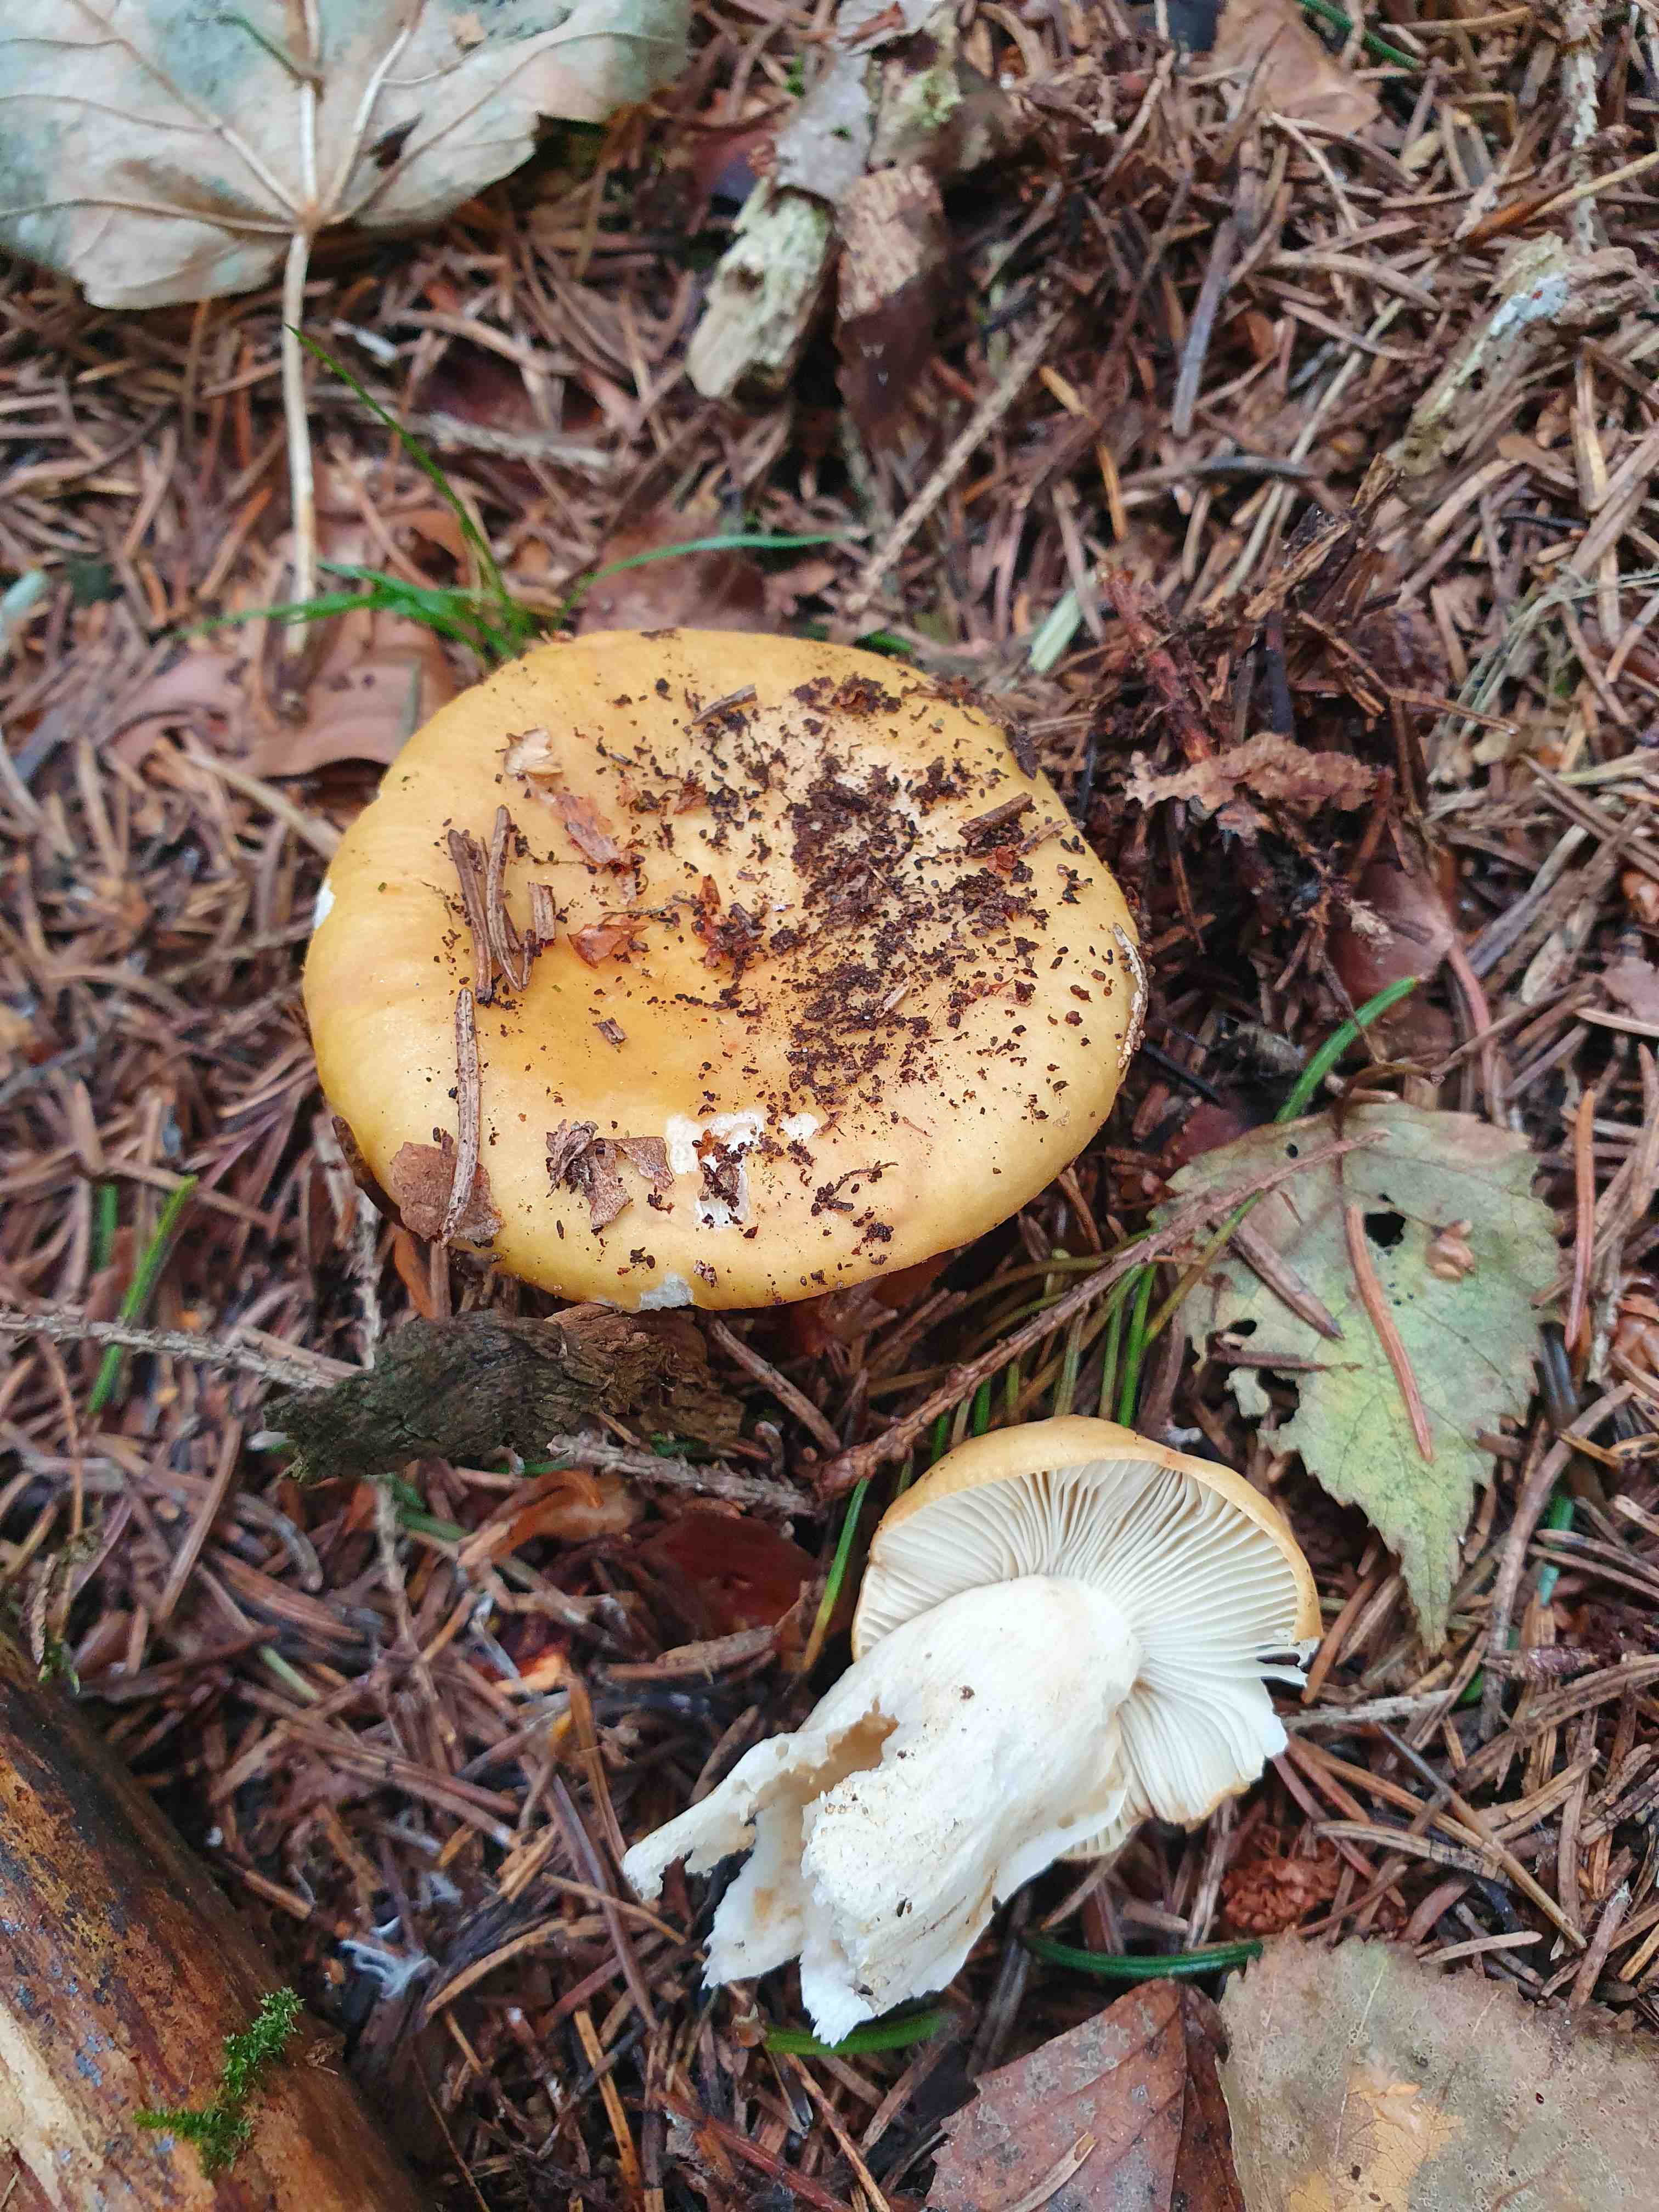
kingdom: Fungi
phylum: Basidiomycota
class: Agaricomycetes
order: Russulales
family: Russulaceae
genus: Russula
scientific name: Russula ochroleuca
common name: okkergul skørhat
